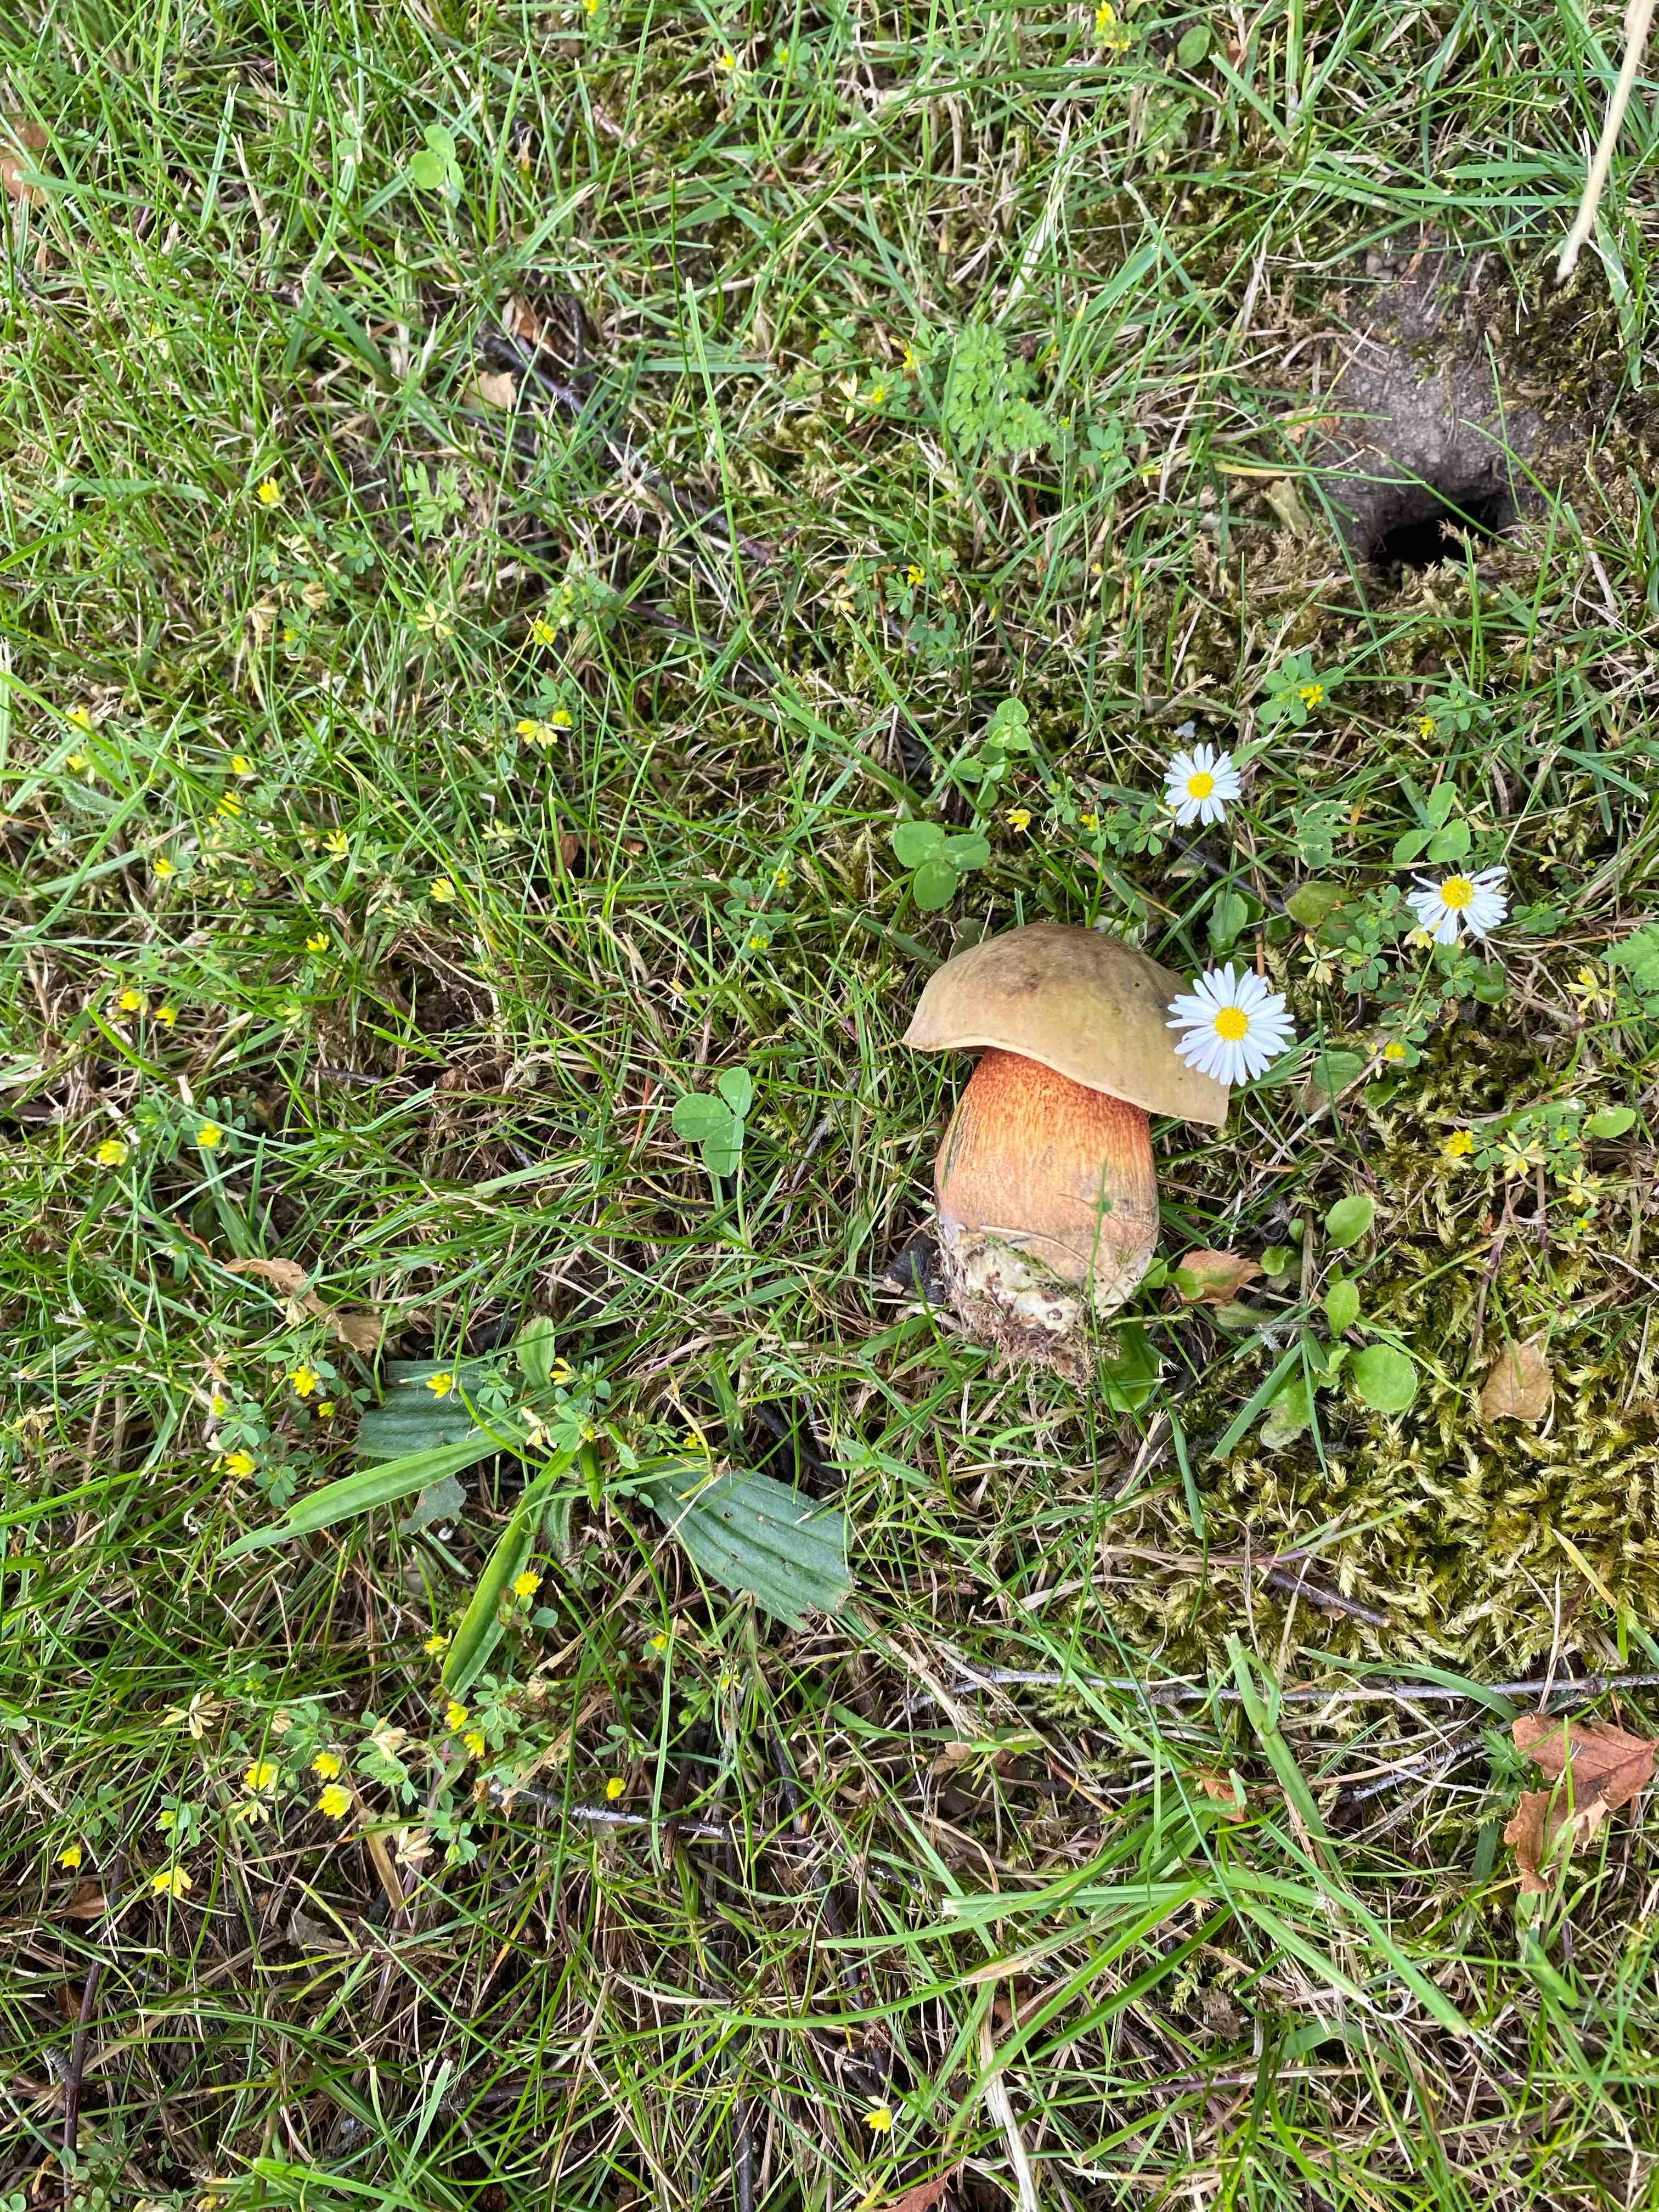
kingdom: Fungi
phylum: Basidiomycota
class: Agaricomycetes
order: Boletales
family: Boletaceae
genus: Suillellus
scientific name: Suillellus luridus
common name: netstokket indigorørhat
